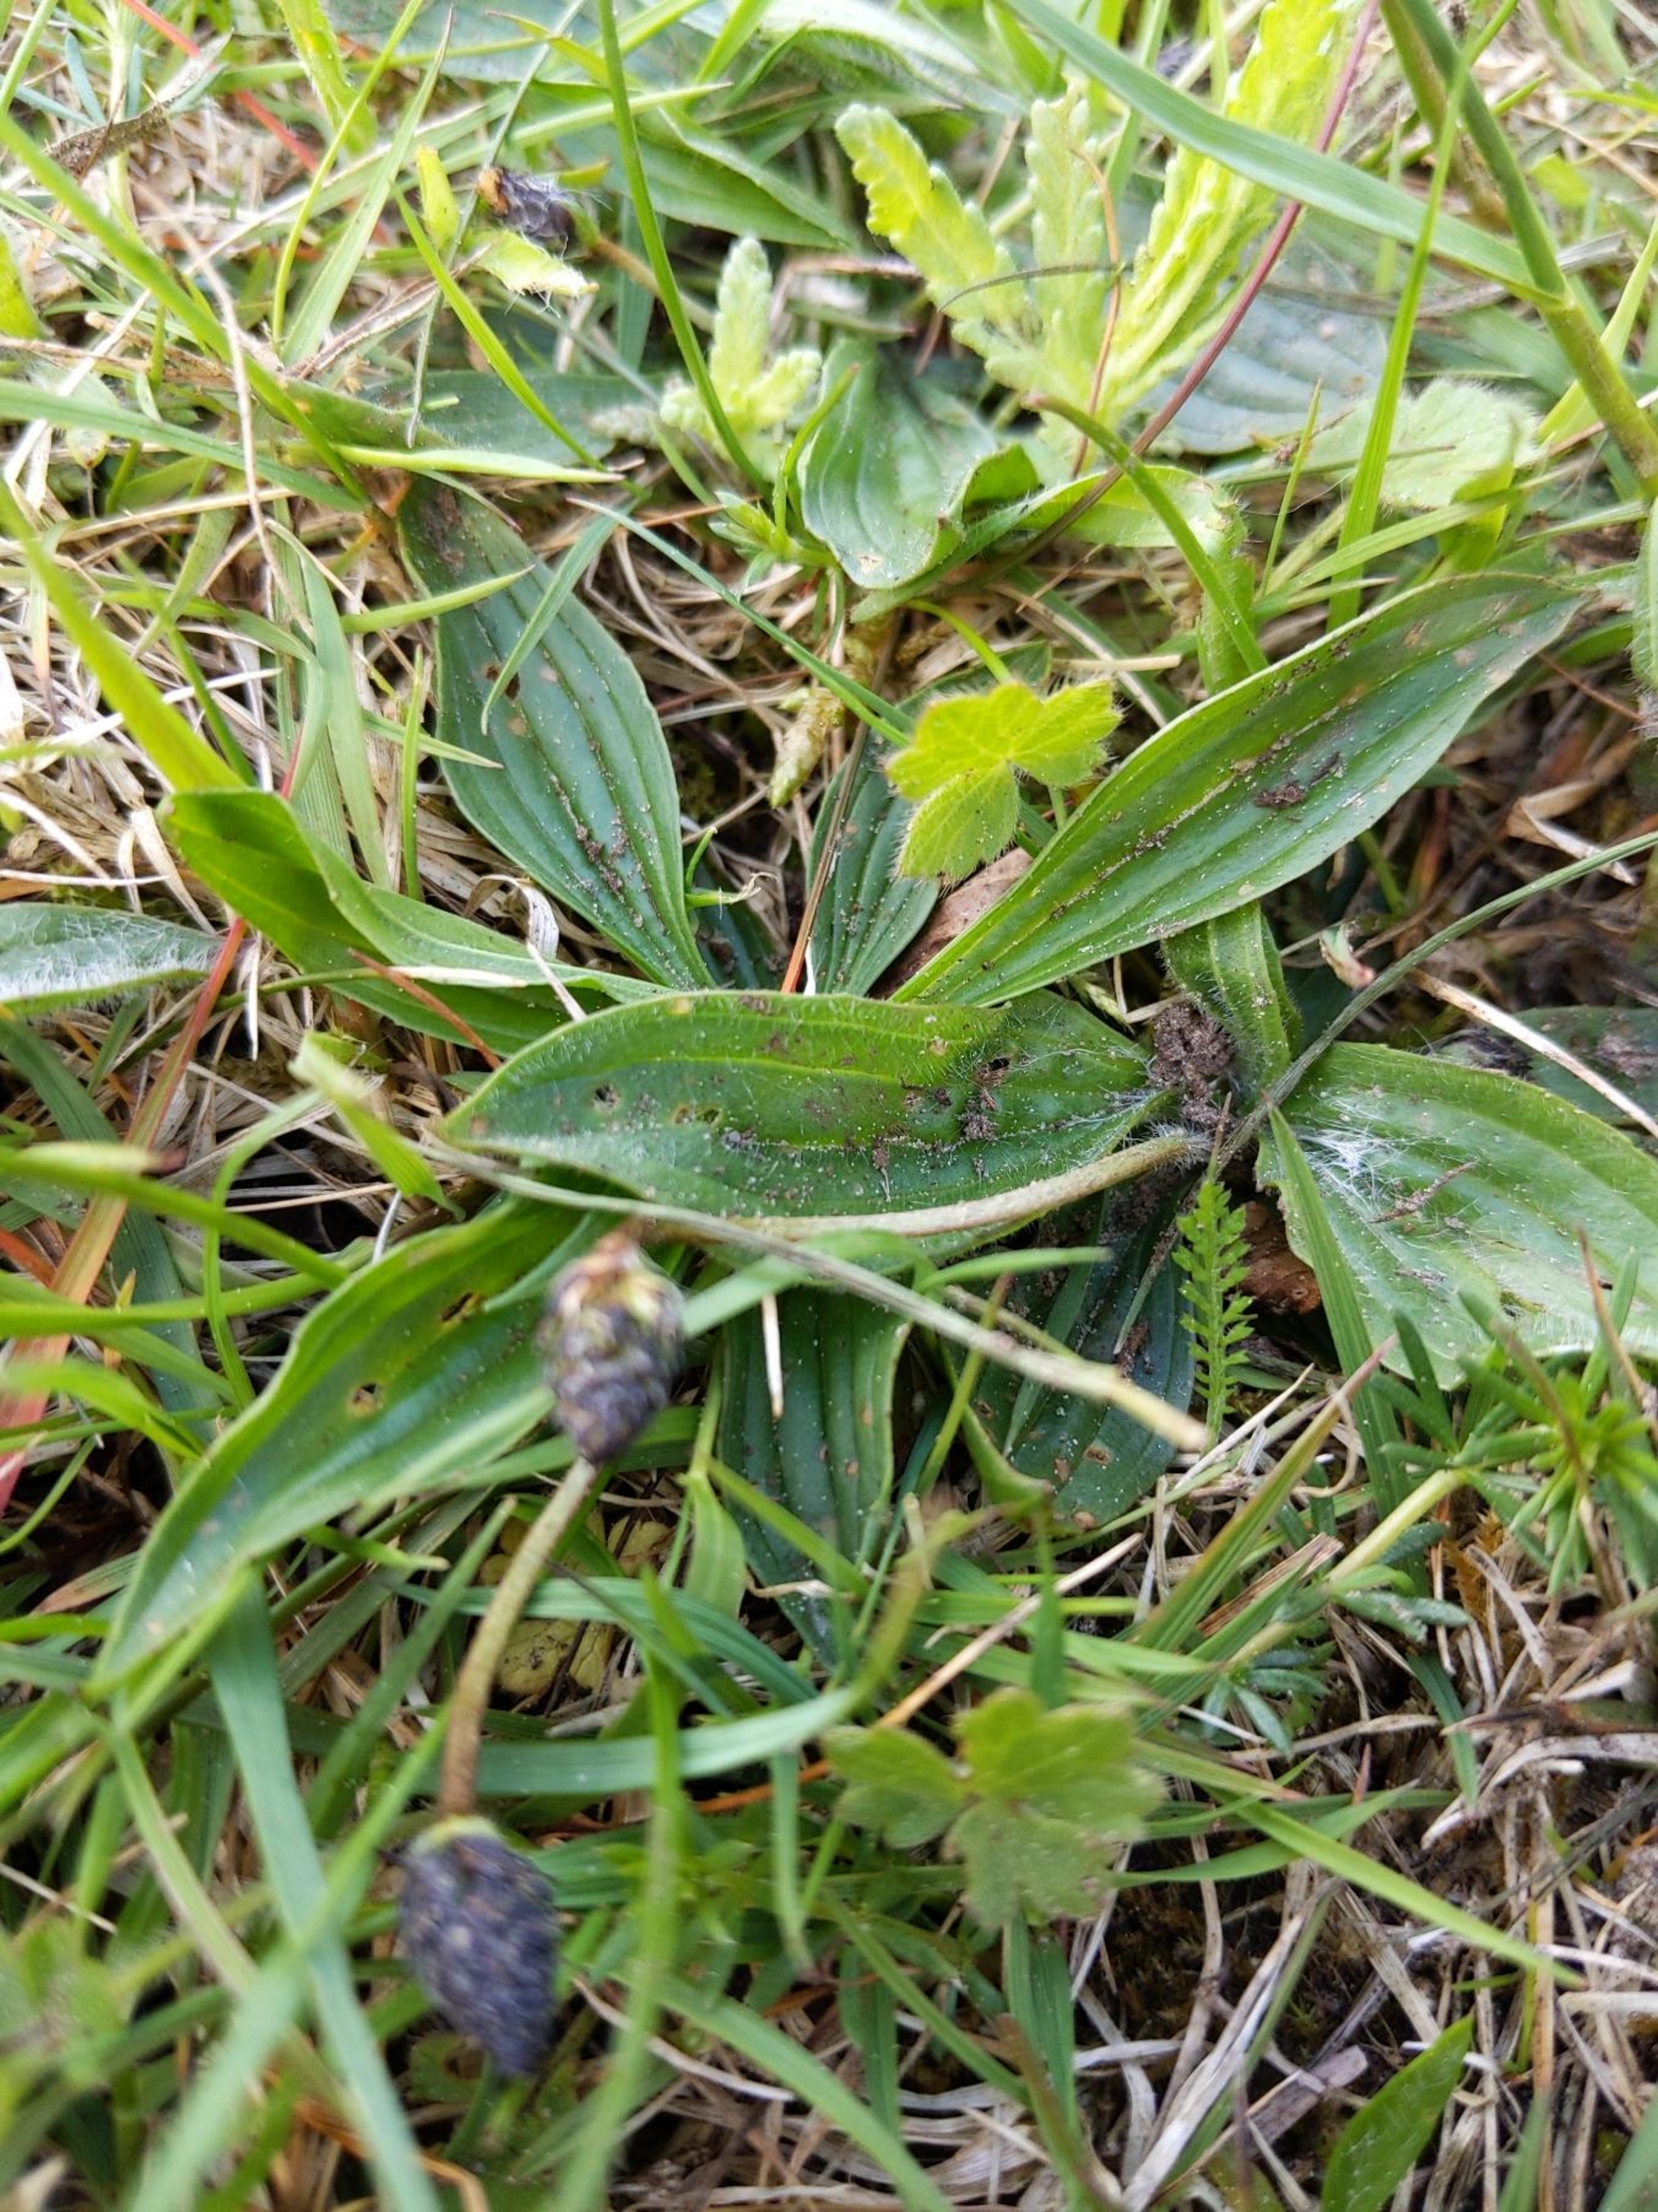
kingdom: Plantae
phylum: Tracheophyta
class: Magnoliopsida
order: Lamiales
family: Plantaginaceae
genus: Plantago
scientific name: Plantago lanceolata
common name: Lancet-vejbred
